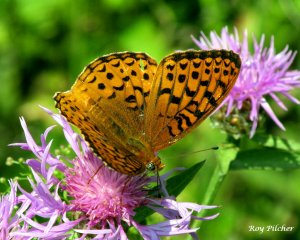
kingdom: Animalia
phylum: Arthropoda
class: Insecta
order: Lepidoptera
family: Nymphalidae
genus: Speyeria
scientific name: Speyeria atlantis
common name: Atlantis Fritillary
